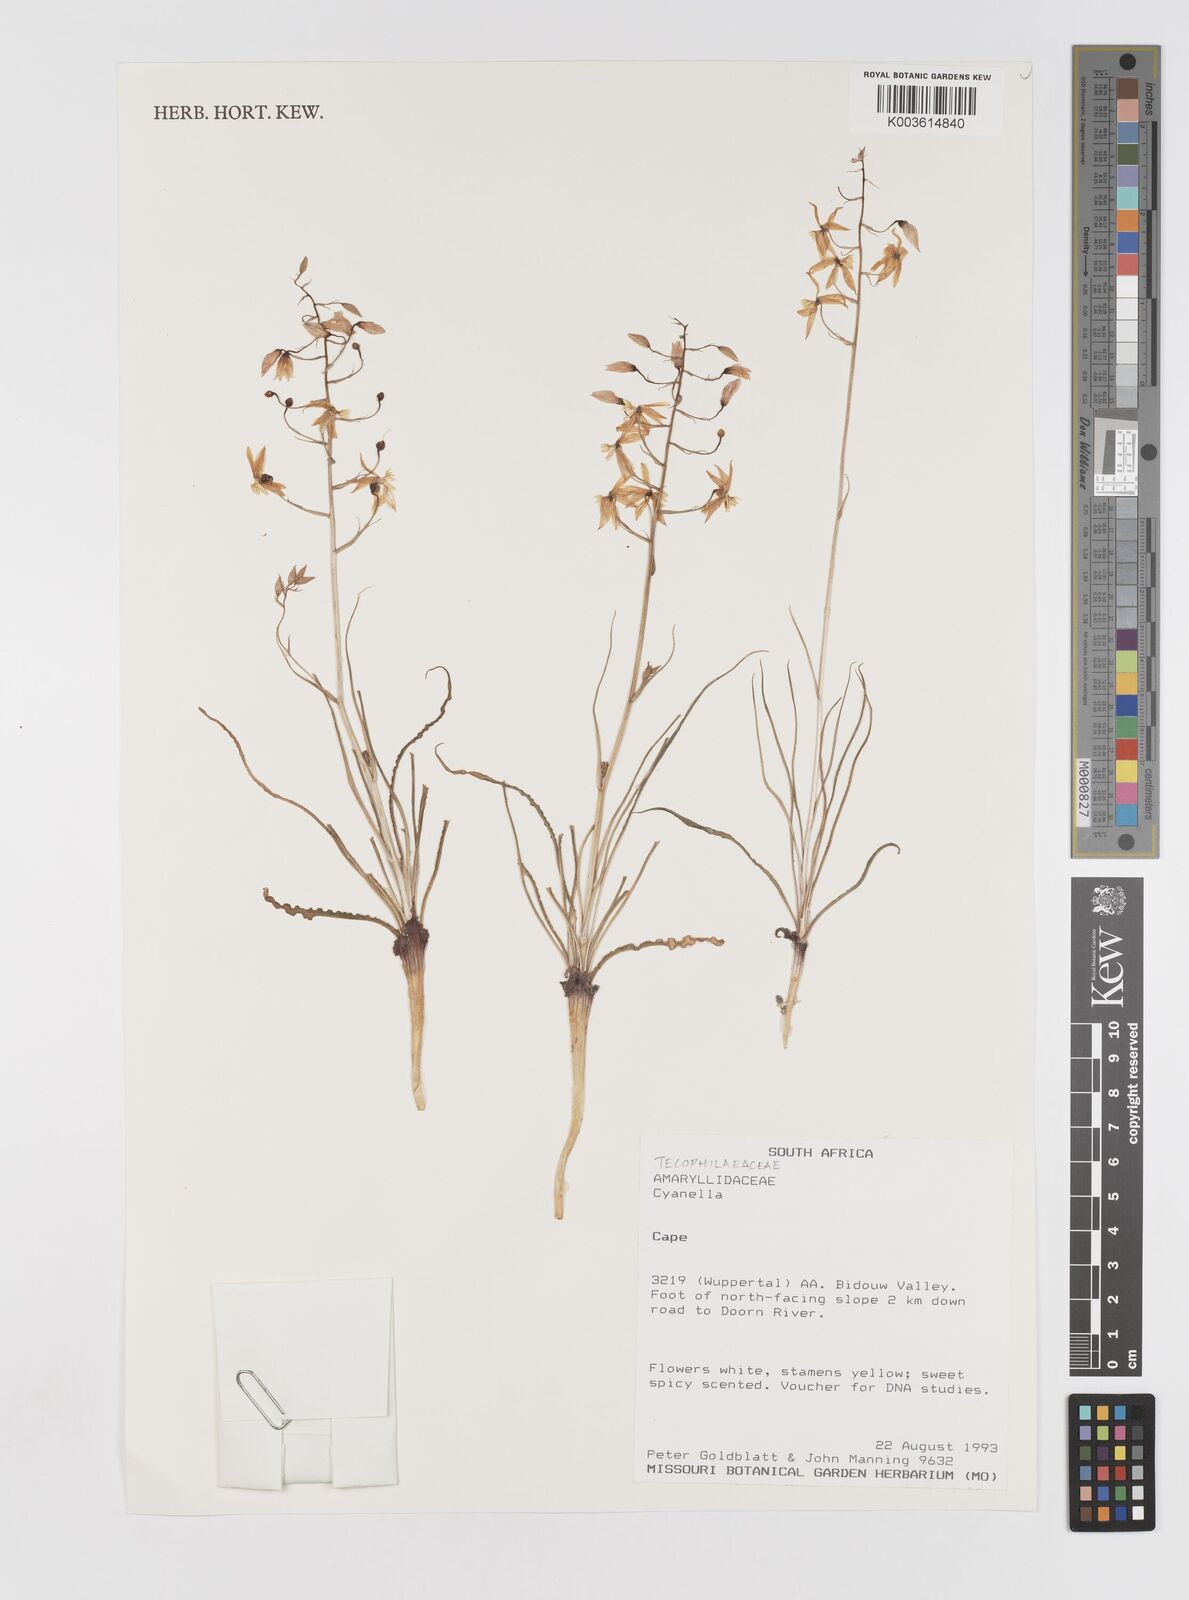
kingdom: Plantae
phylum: Tracheophyta
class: Liliopsida
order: Asparagales
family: Tecophilaeaceae
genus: Cyanella
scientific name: Cyanella
